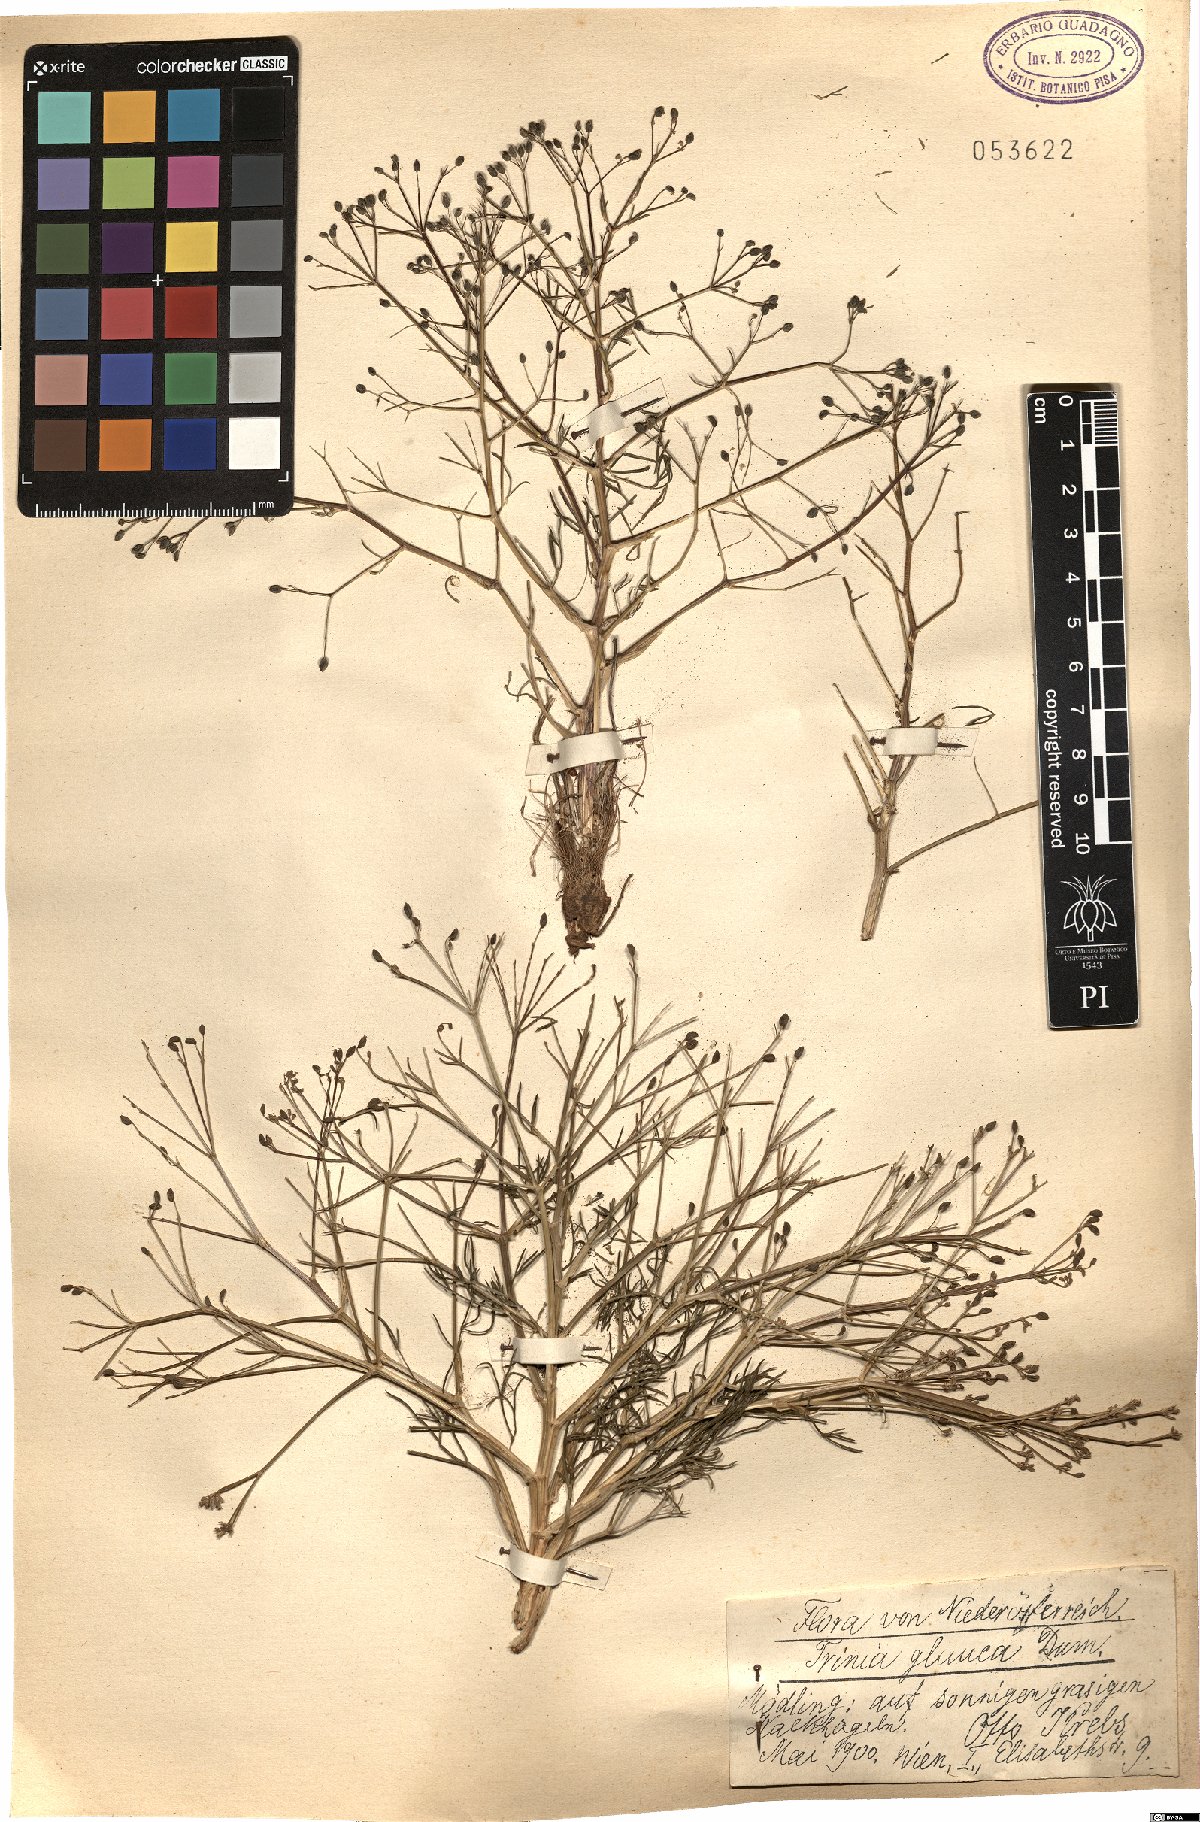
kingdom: Plantae
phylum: Tracheophyta
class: Magnoliopsida
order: Apiales
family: Apiaceae
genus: Trinia
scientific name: Trinia glauca
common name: Honewort
